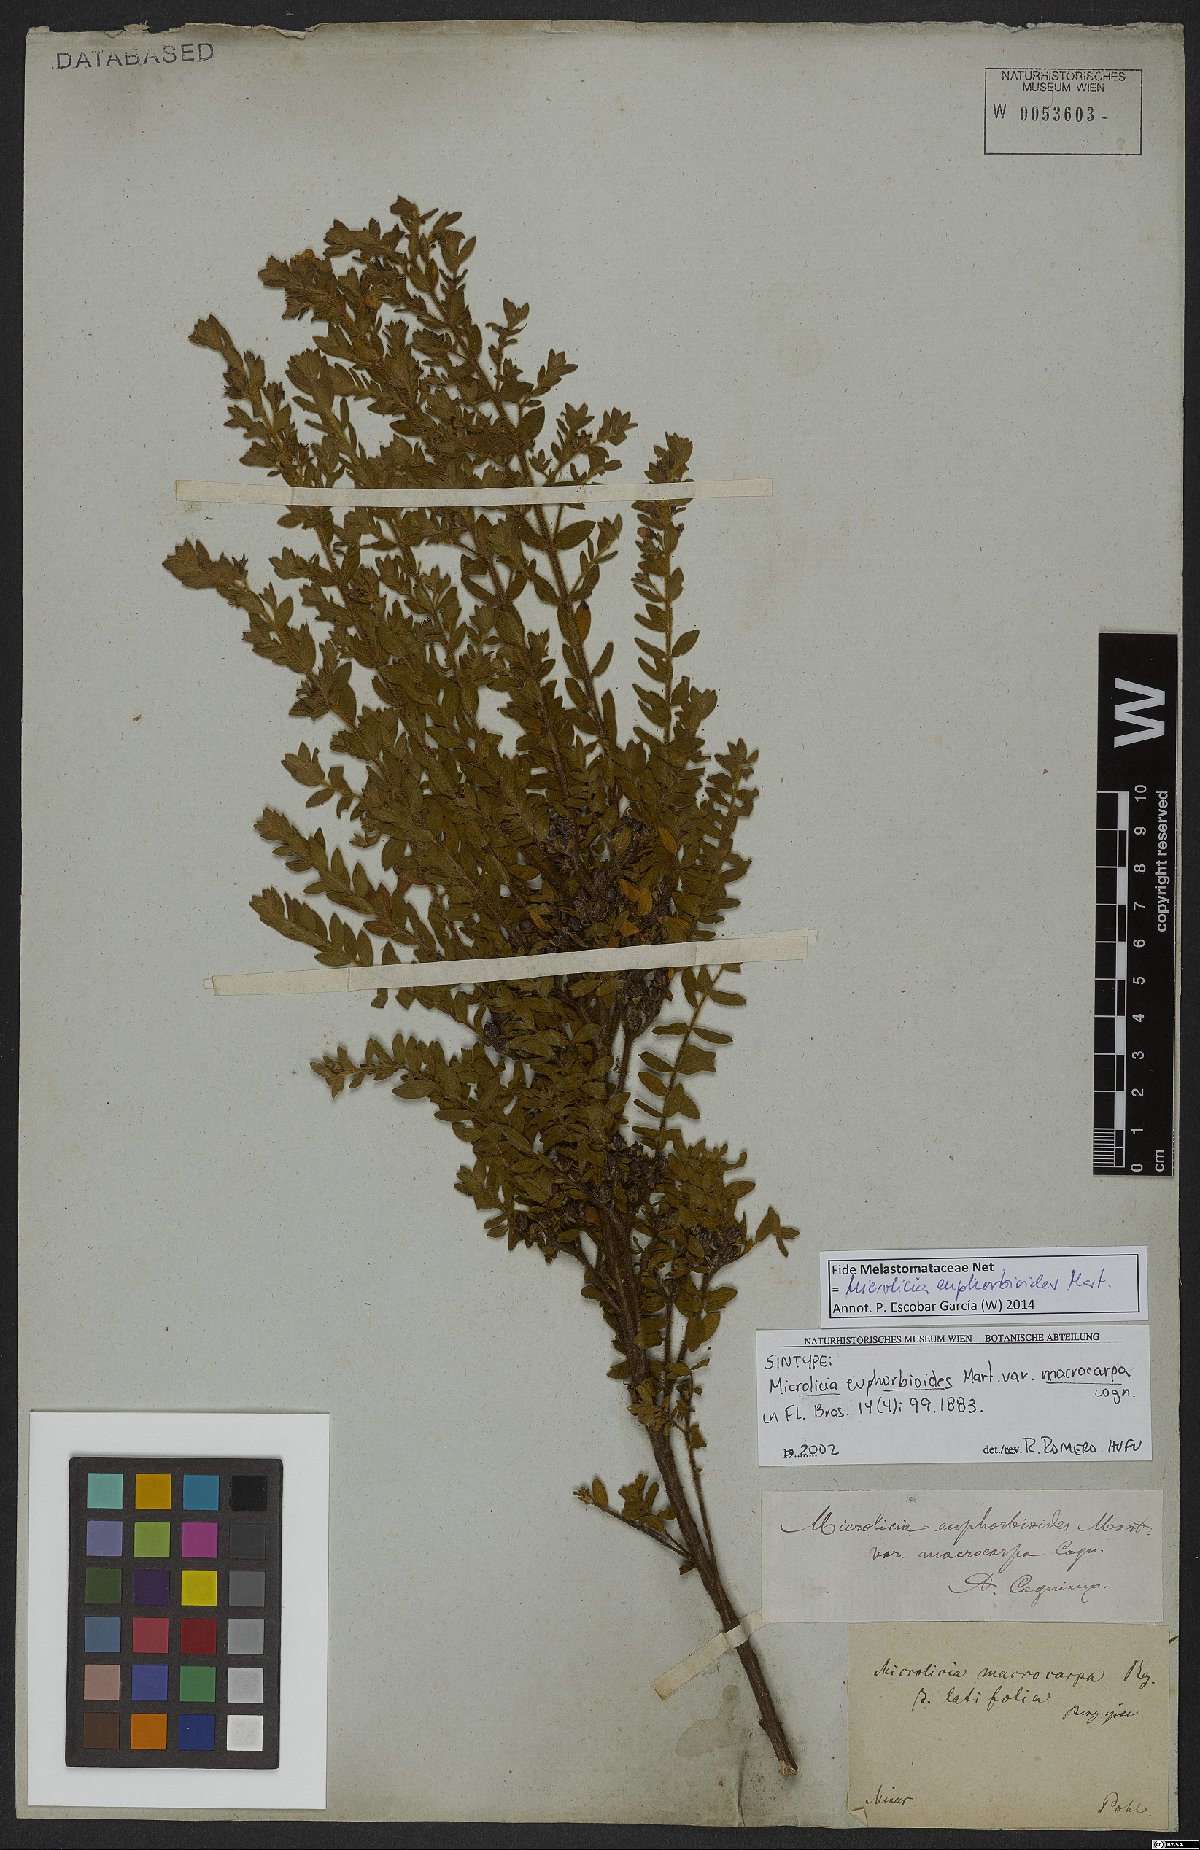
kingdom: Plantae
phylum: Tracheophyta
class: Magnoliopsida
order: Myrtales
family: Melastomataceae
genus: Microlicia
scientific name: Microlicia euphorbioides
